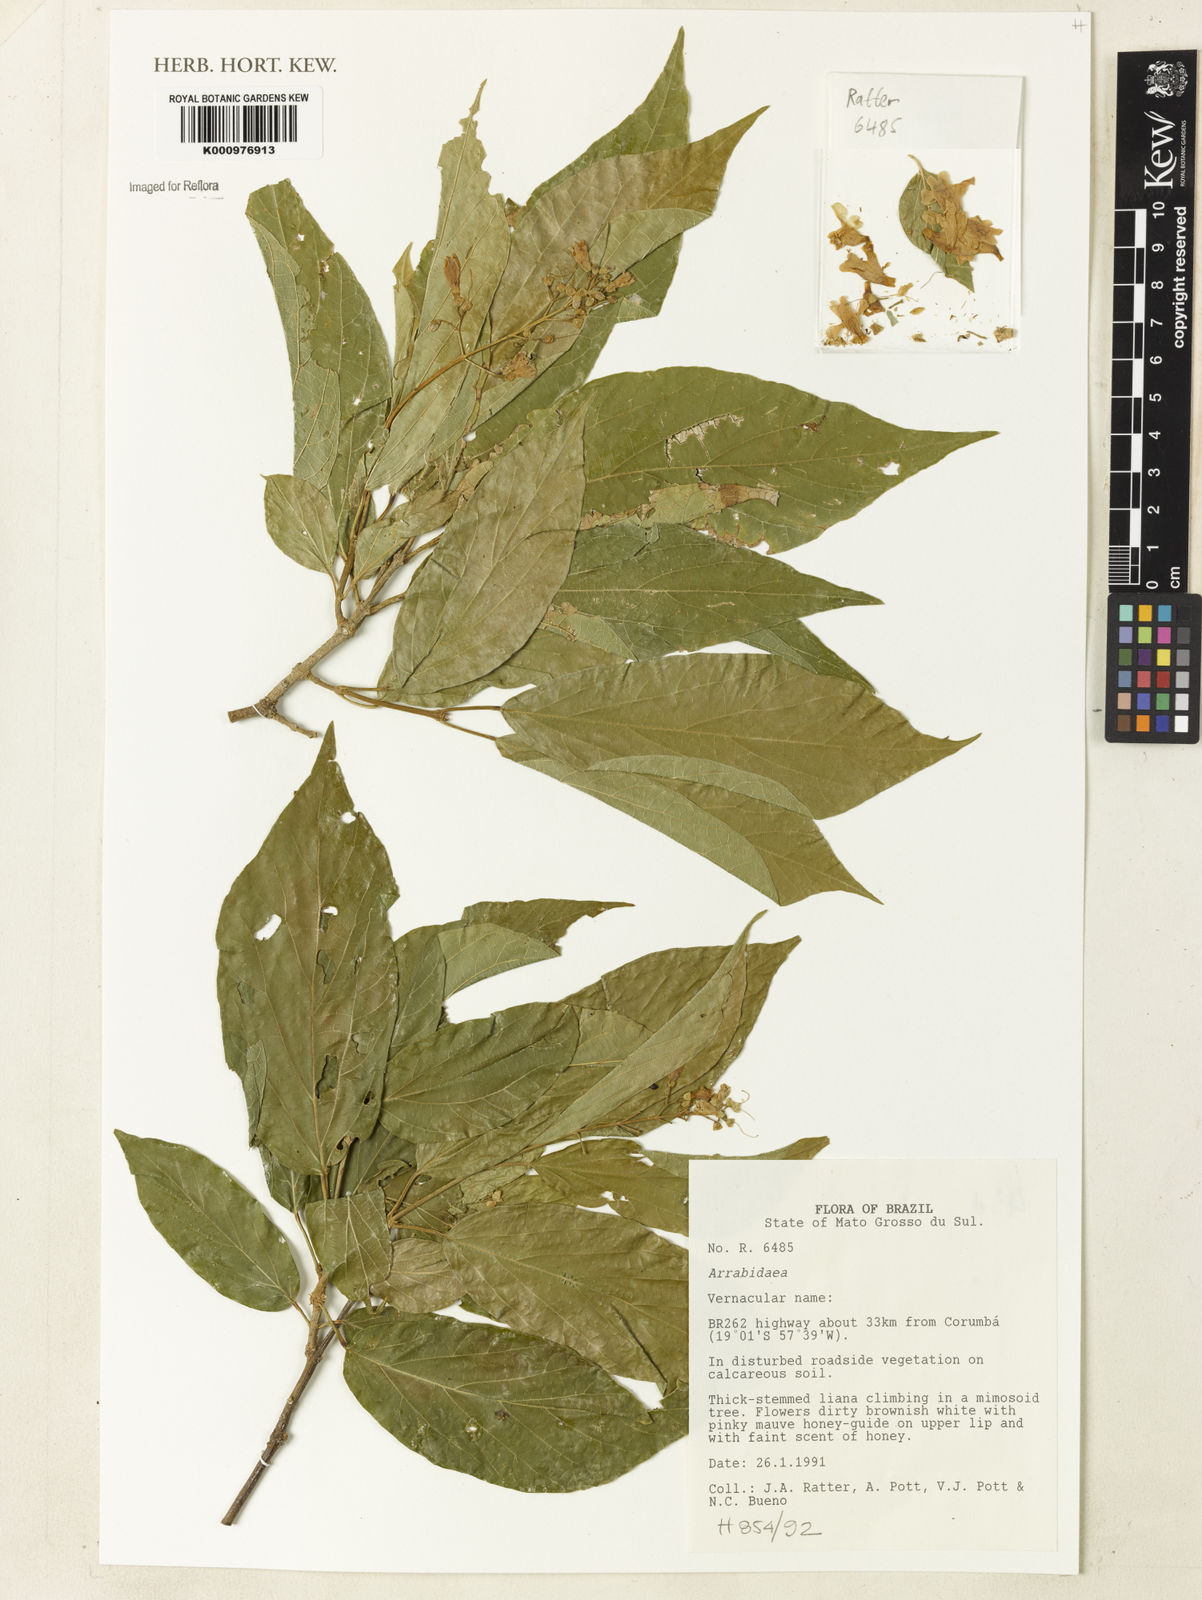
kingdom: Plantae
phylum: Tracheophyta
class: Magnoliopsida
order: Rosales
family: Rhamnaceae
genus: Arrabidaea
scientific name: Arrabidaea
